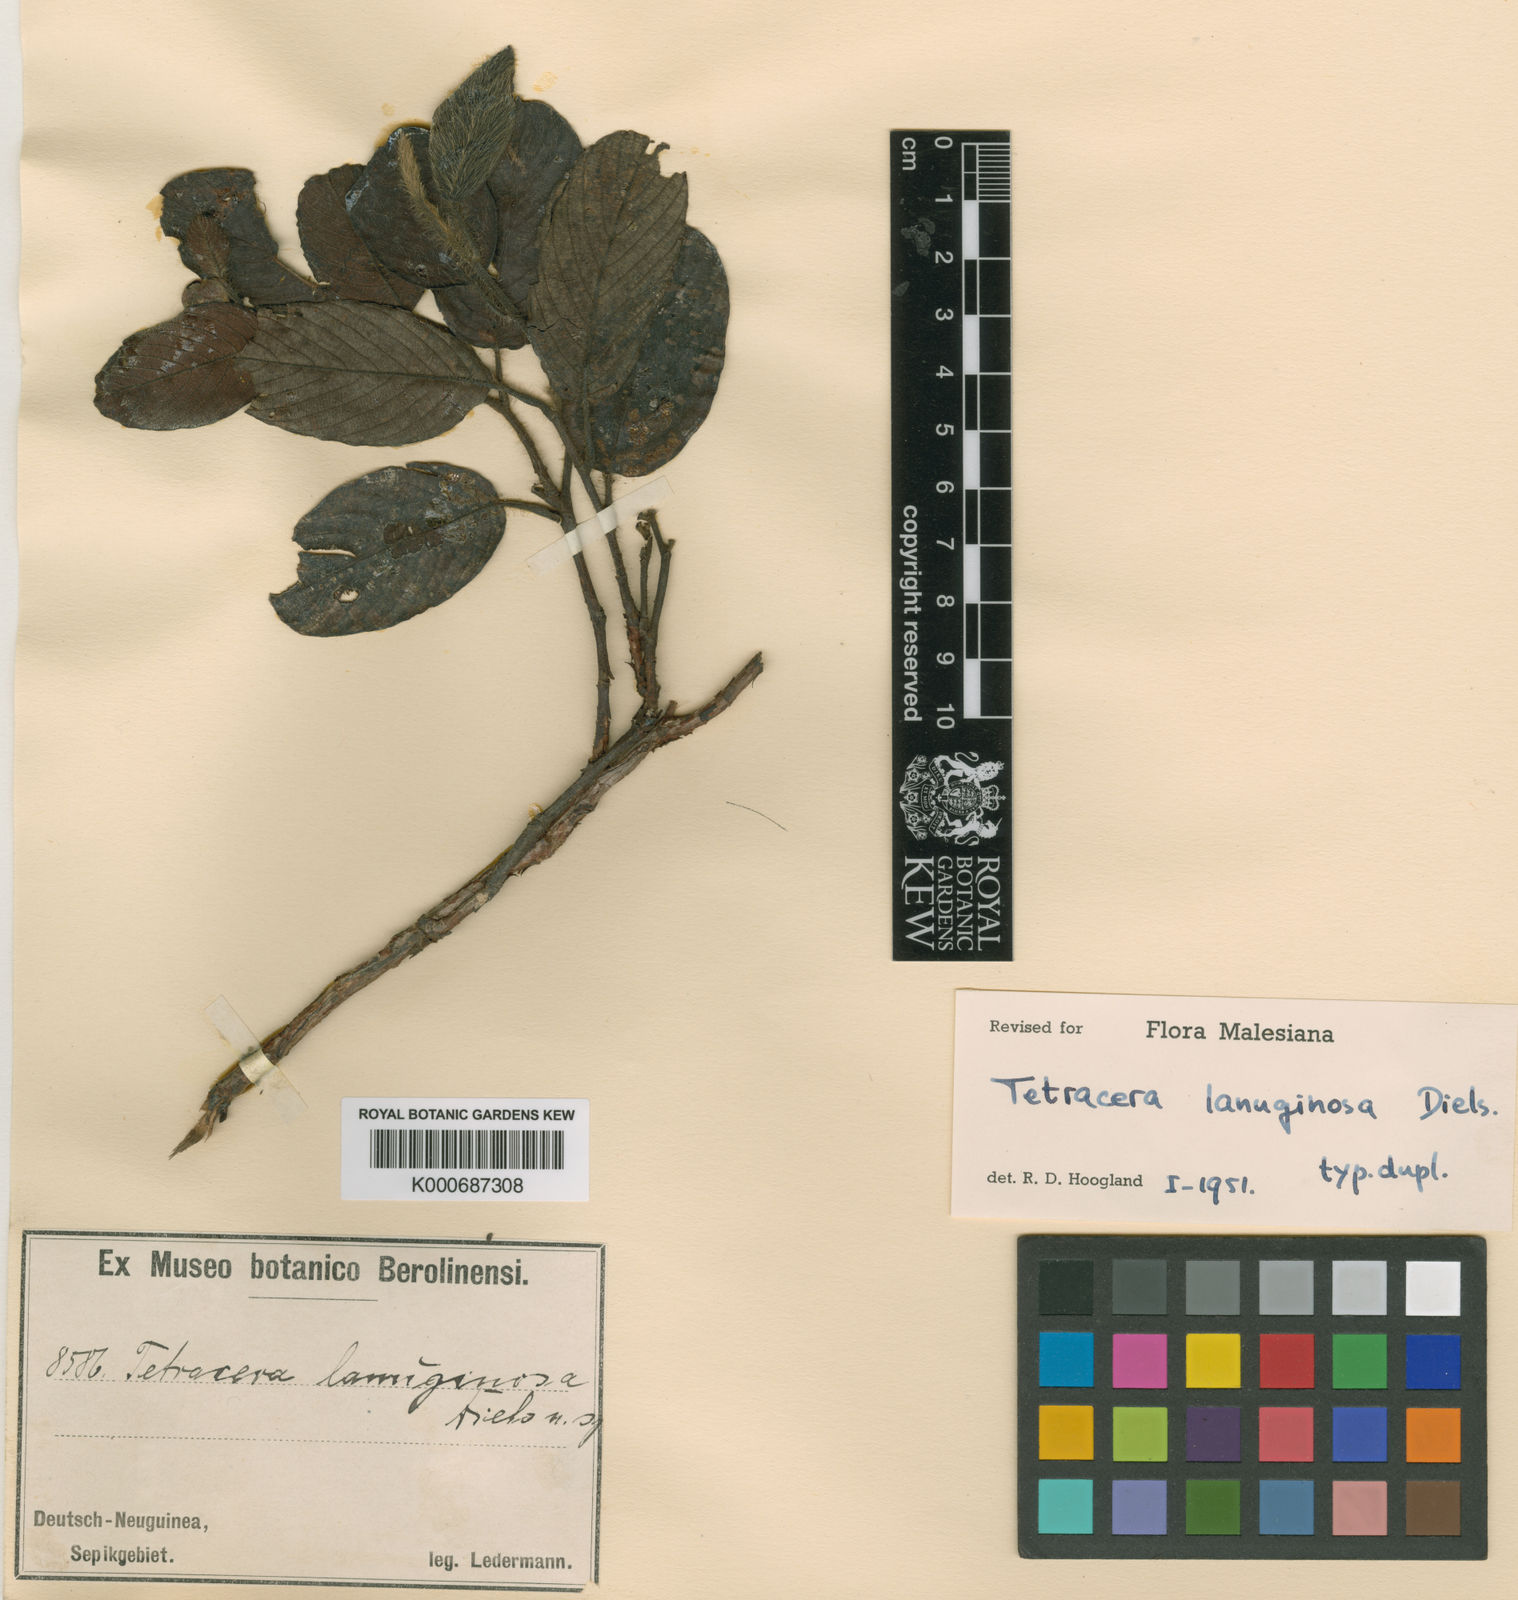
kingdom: Plantae
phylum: Tracheophyta
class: Magnoliopsida
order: Dilleniales
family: Dilleniaceae
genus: Tetracera
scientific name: Tetracera lanuginosa
